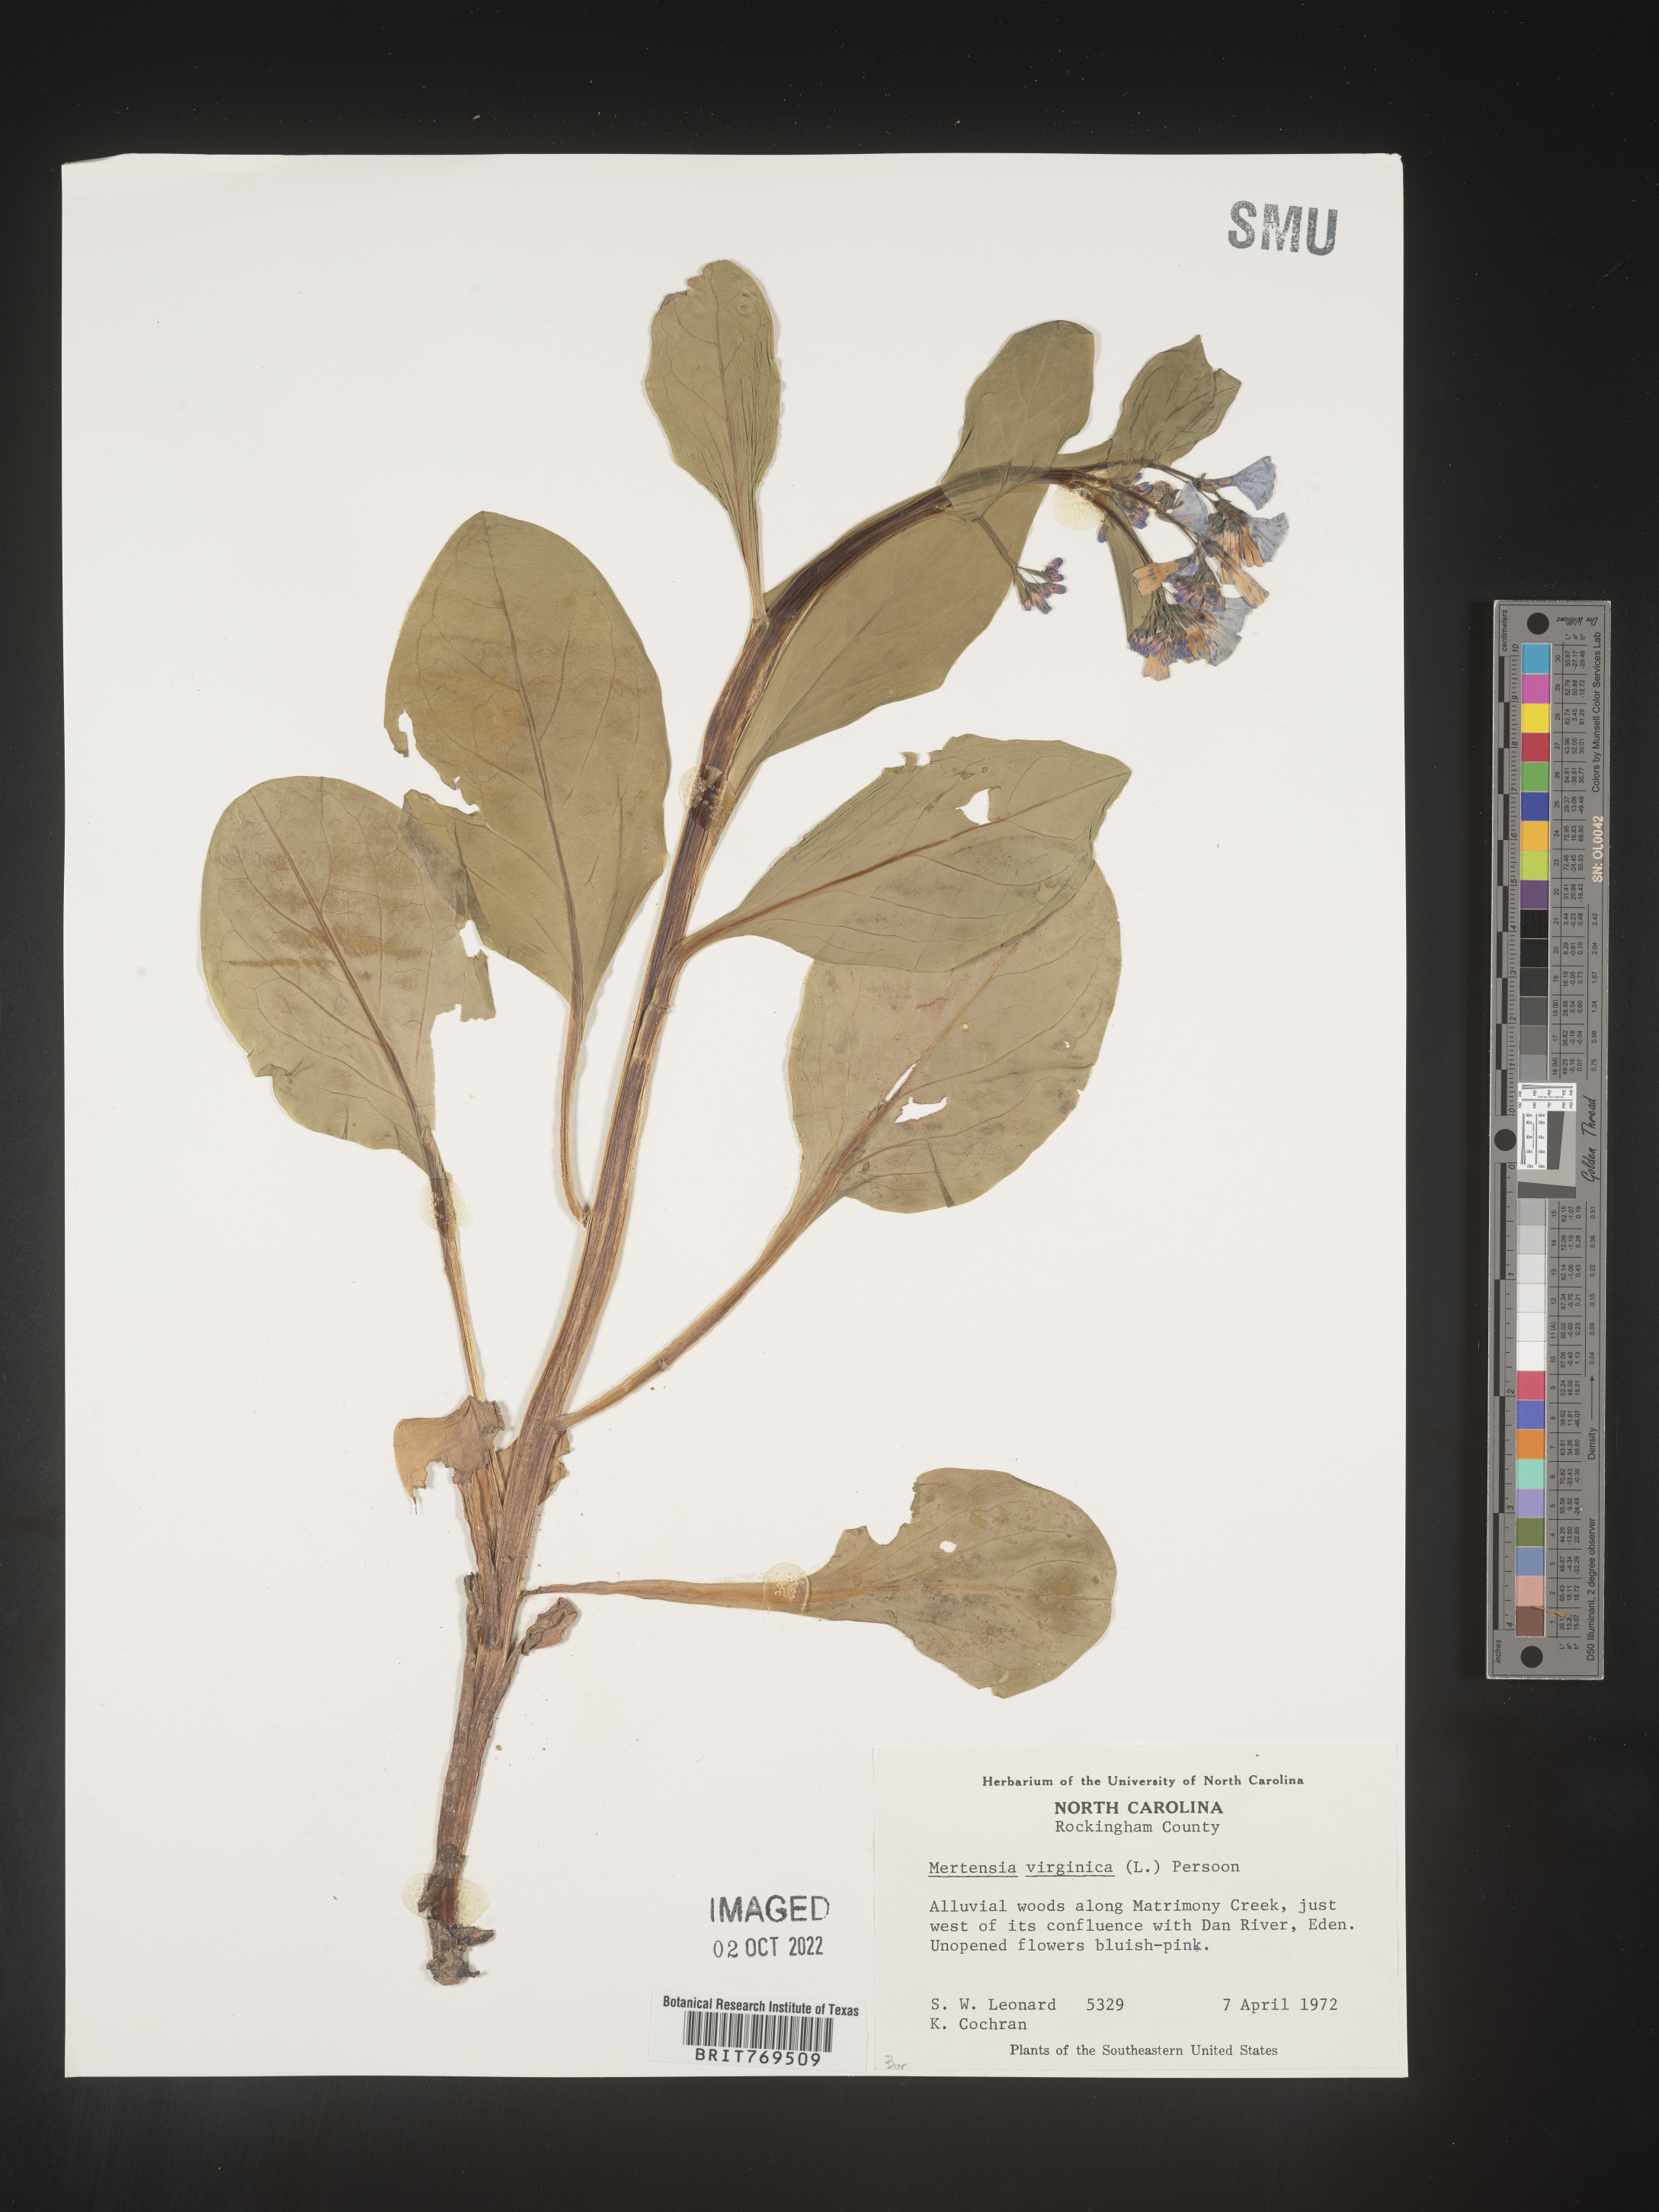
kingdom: Plantae
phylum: Tracheophyta
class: Magnoliopsida
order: Boraginales
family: Boraginaceae
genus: Mertensia
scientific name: Mertensia virginica
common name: Virginia bluebells
